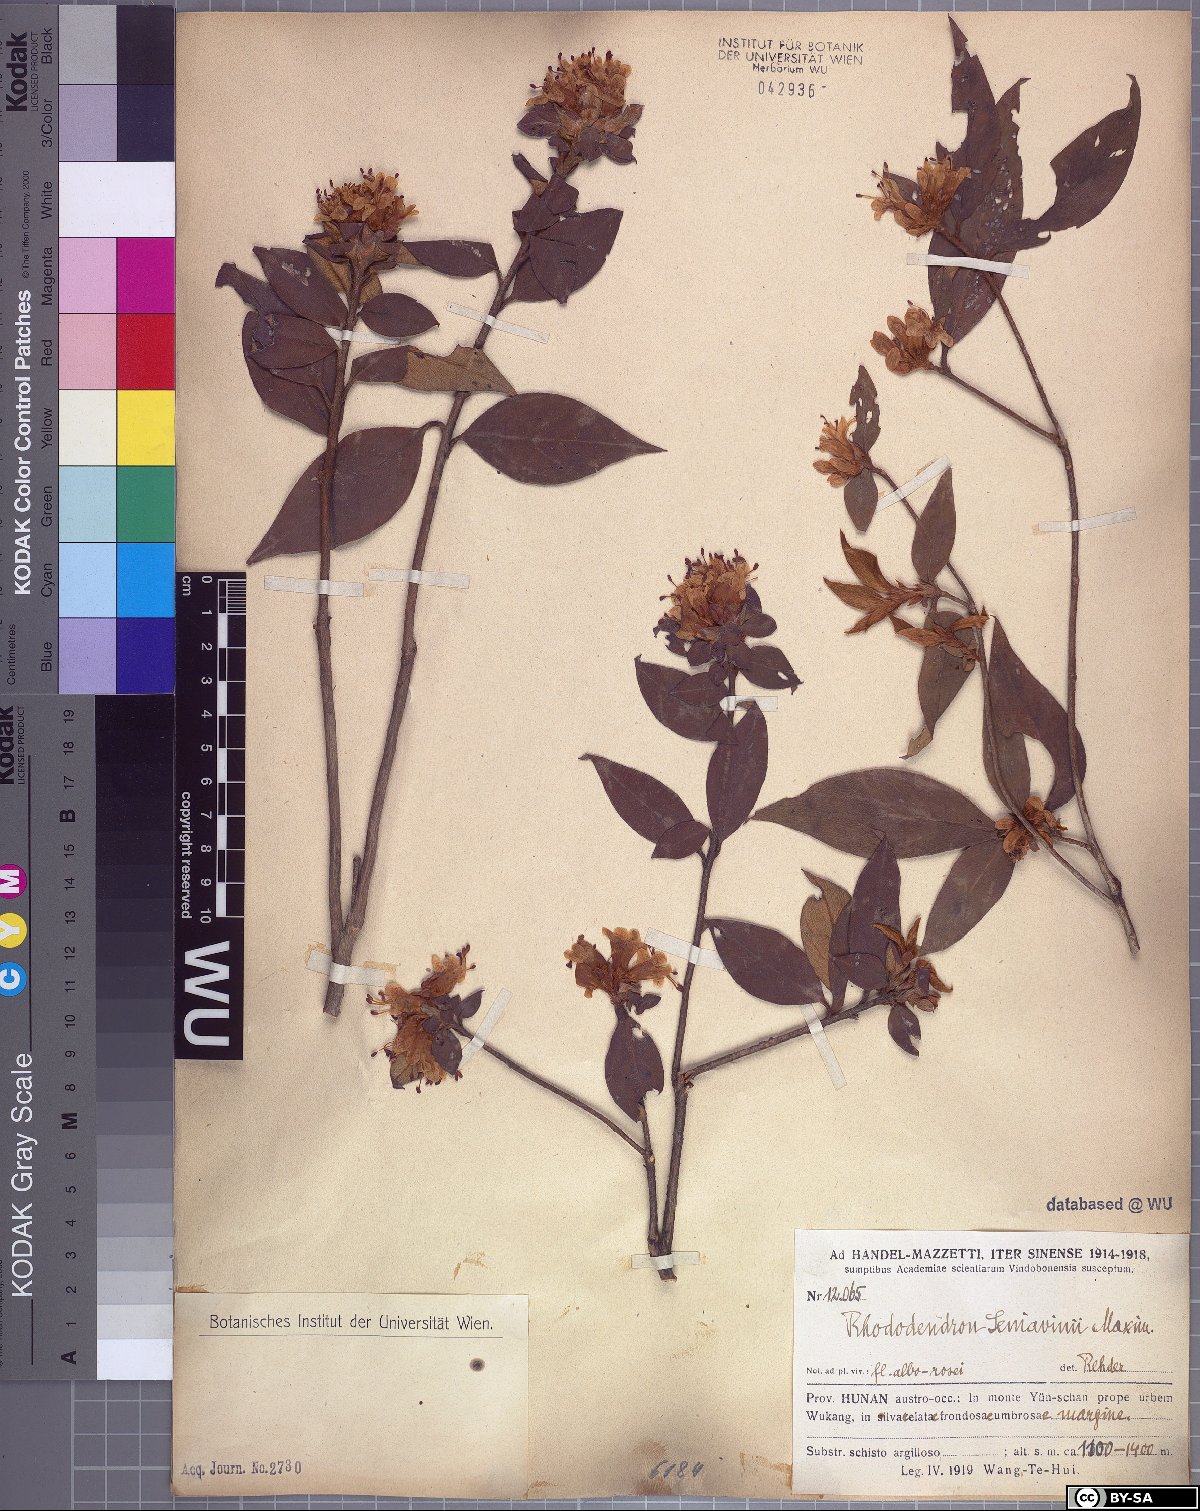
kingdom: Plantae
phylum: Tracheophyta
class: Magnoliopsida
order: Ericales
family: Ericaceae
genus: Rhododendron
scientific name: Rhododendron seniavinii
